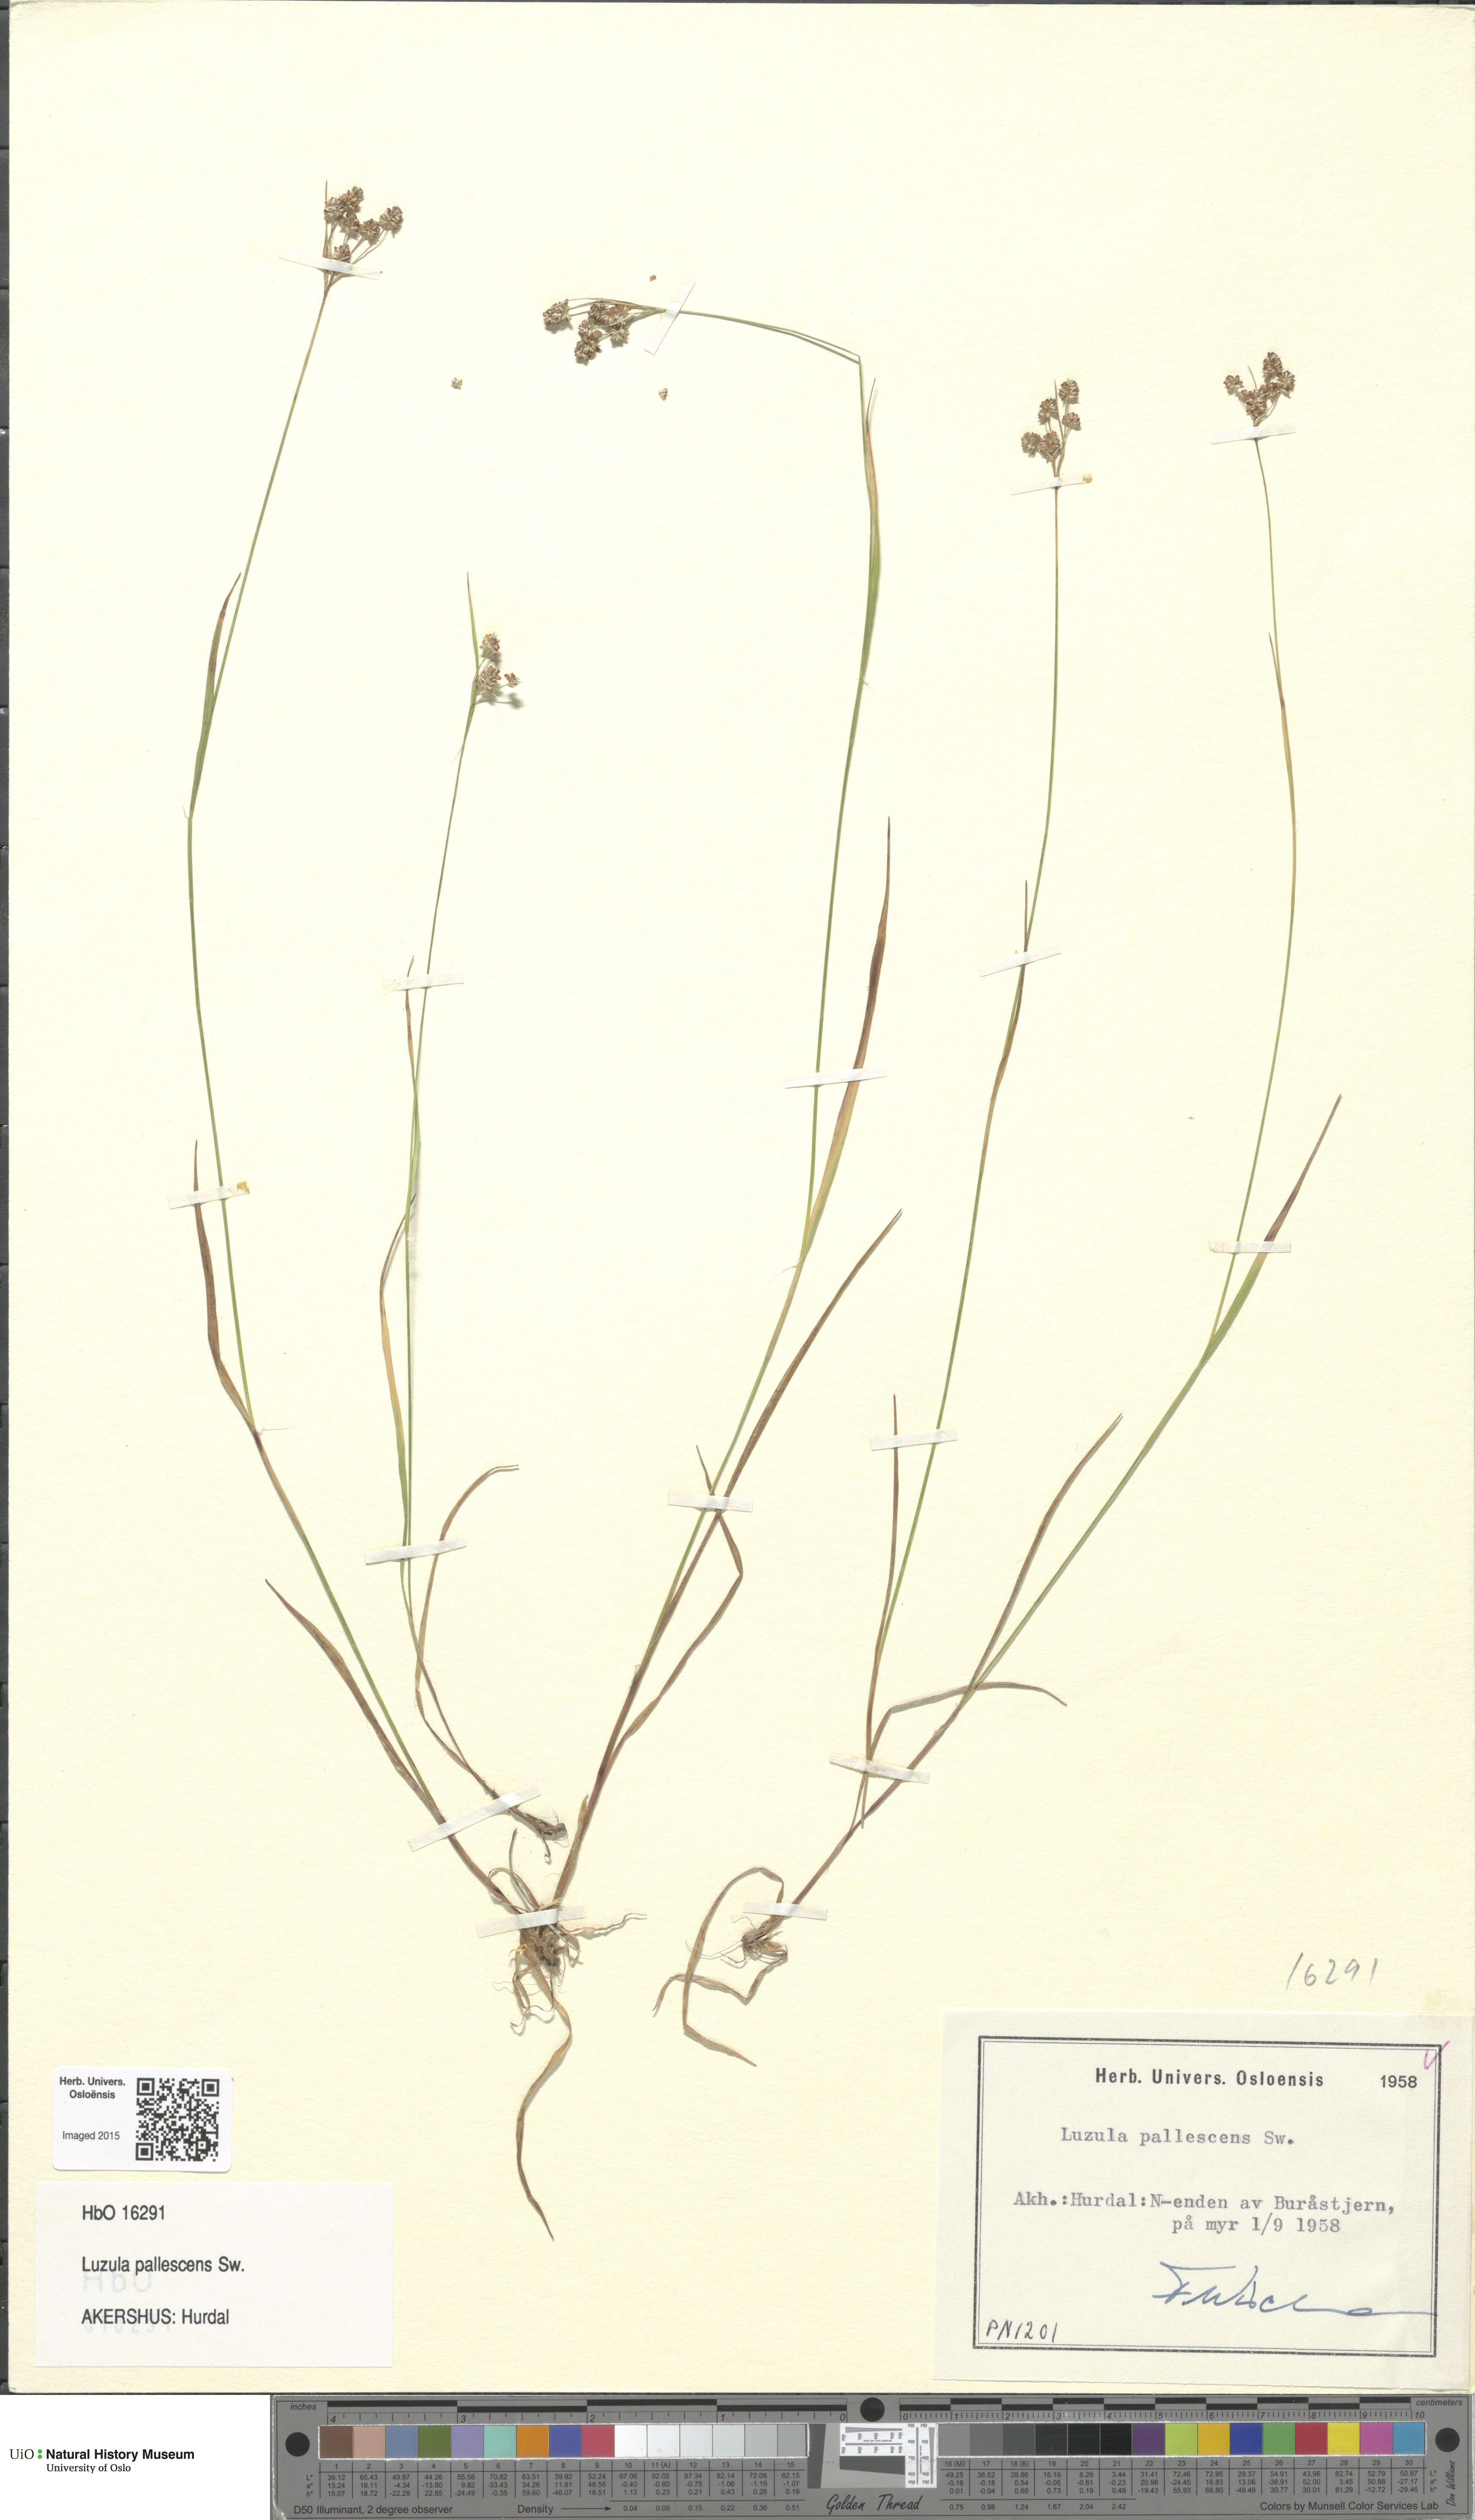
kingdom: Plantae
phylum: Tracheophyta
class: Liliopsida
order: Poales
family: Juncaceae
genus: Luzula
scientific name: Luzula pallescens
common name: Fen wood-rush
